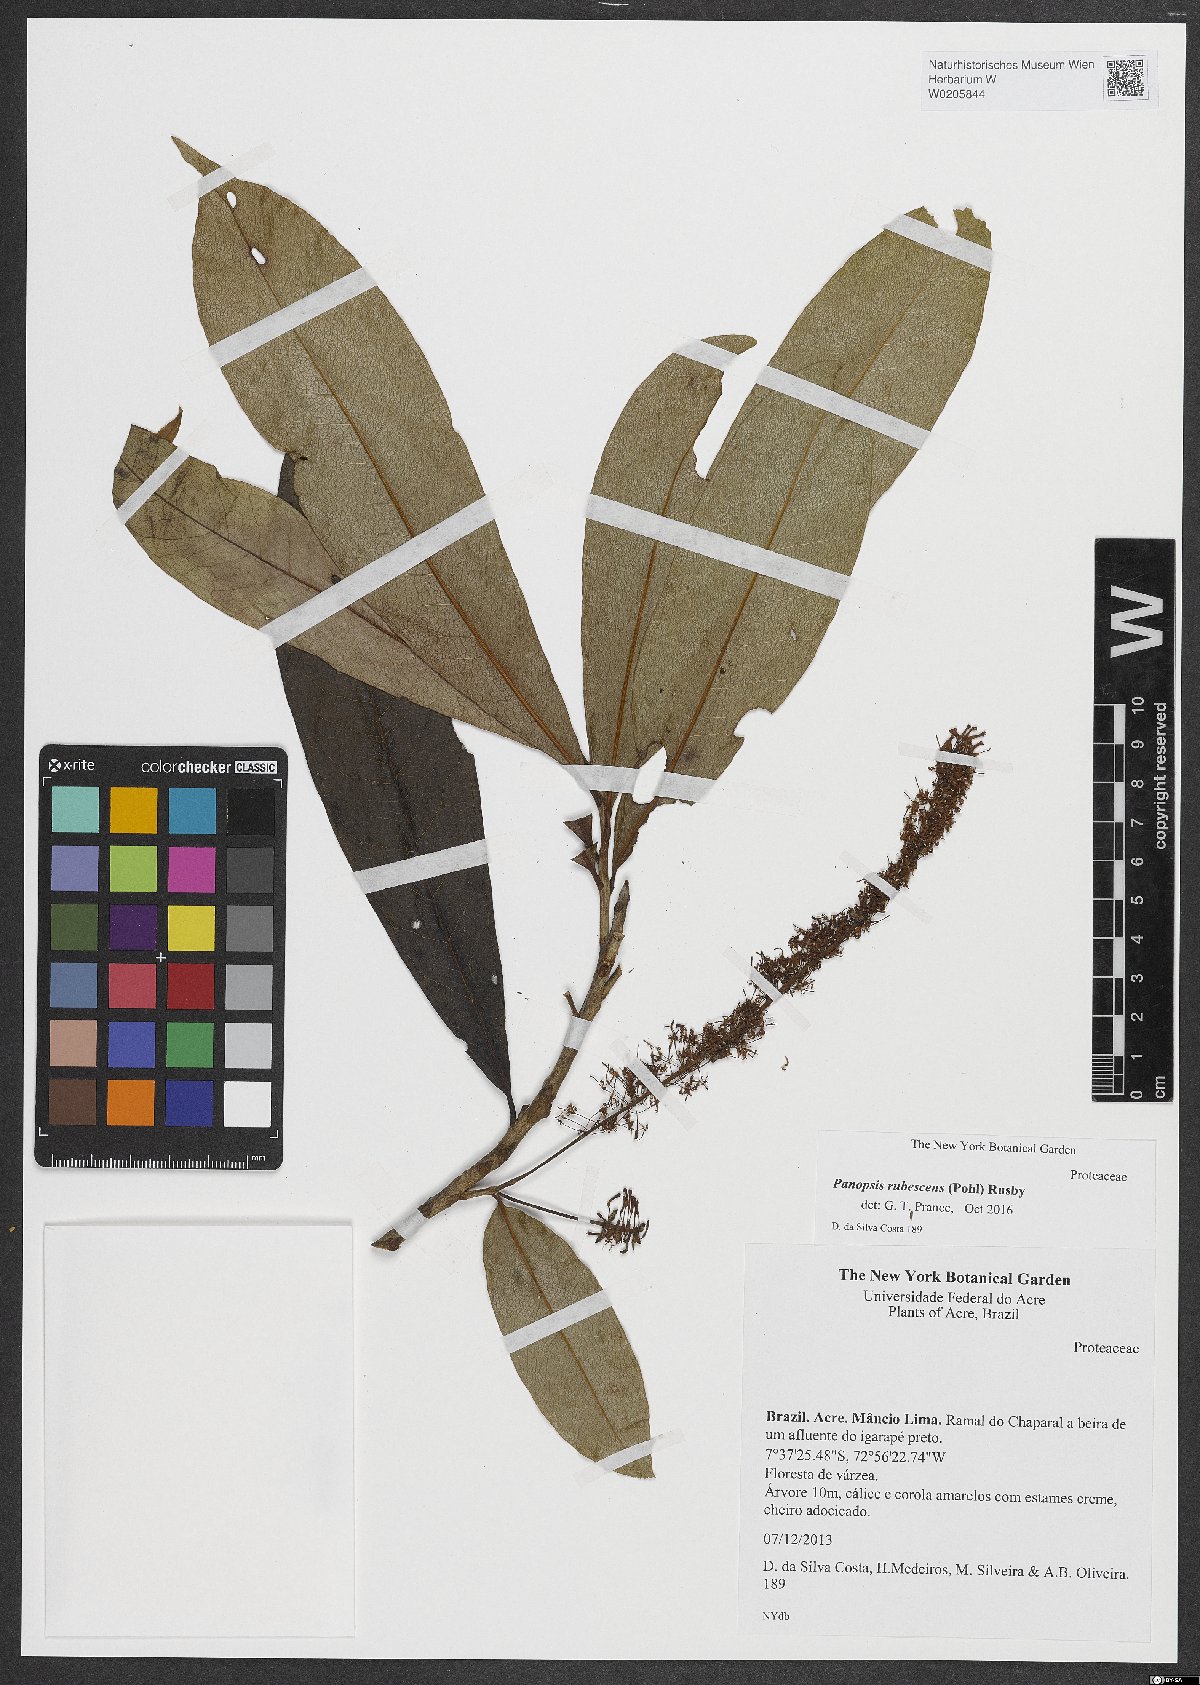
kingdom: Plantae
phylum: Tracheophyta
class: Magnoliopsida
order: Proteales
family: Proteaceae
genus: Panopsis
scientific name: Panopsis rubescens
